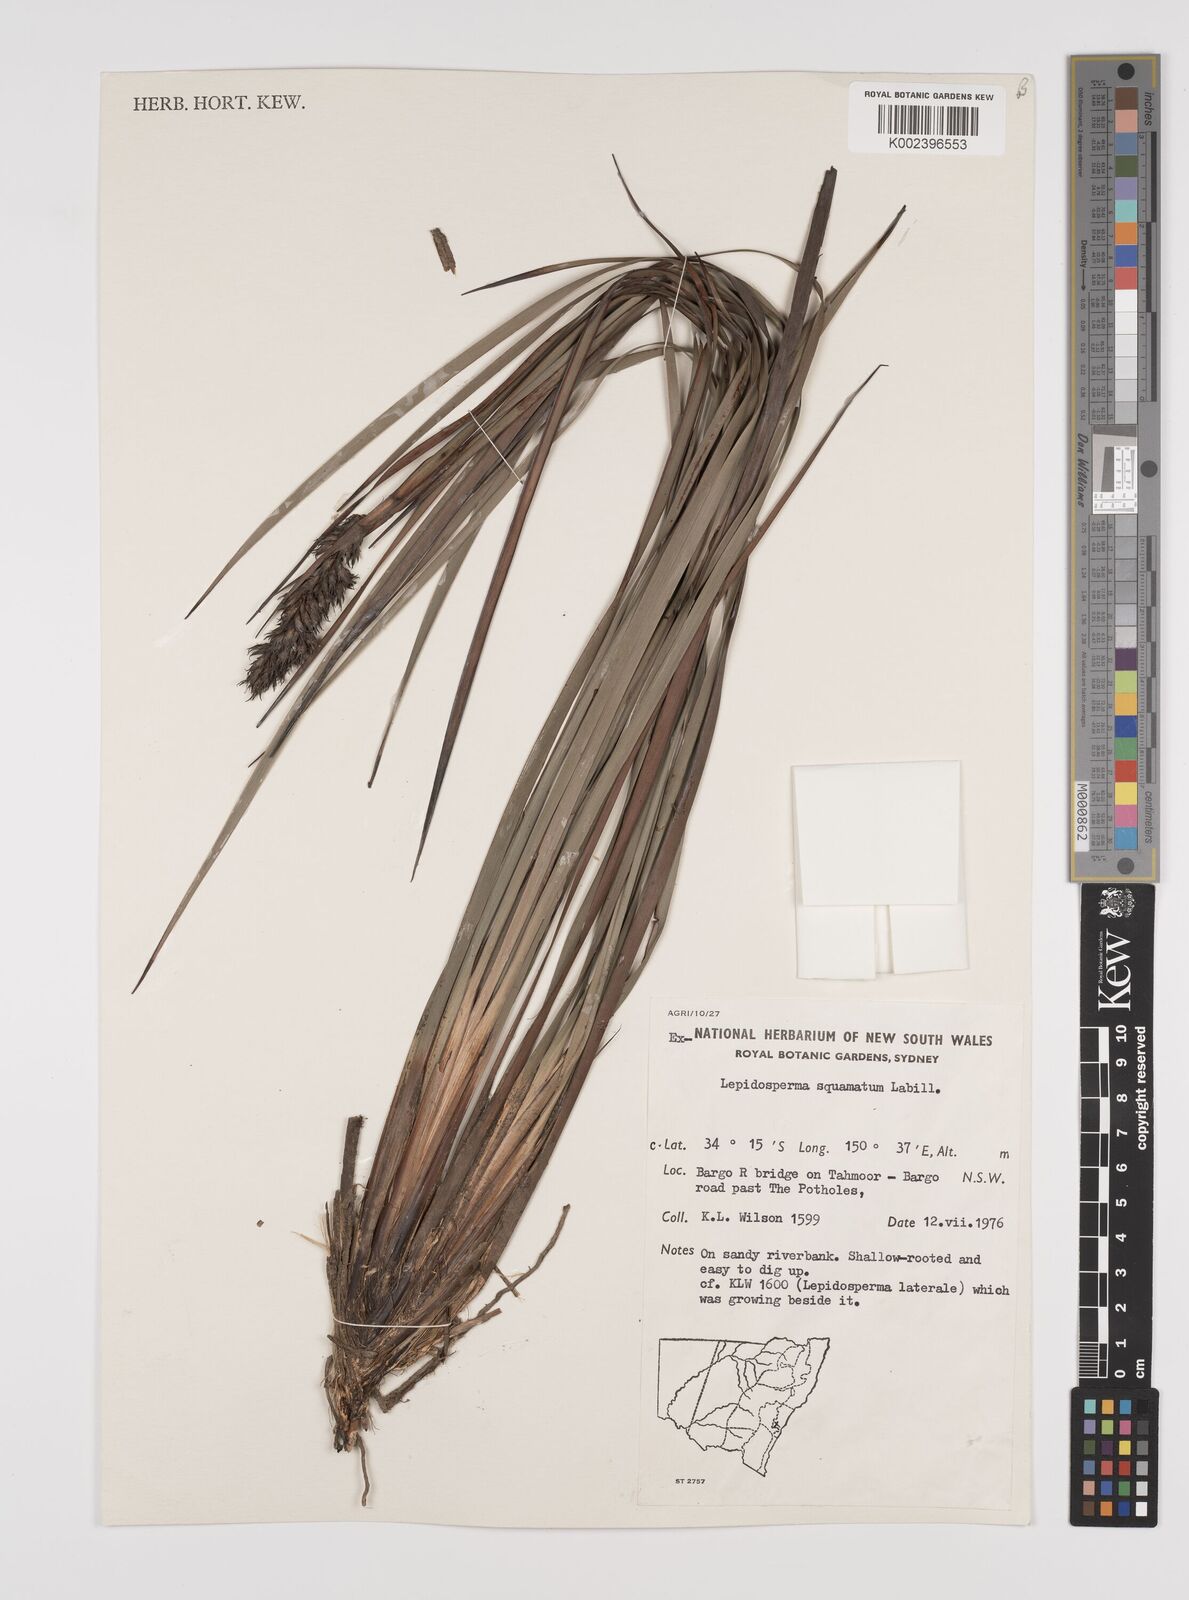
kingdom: Plantae
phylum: Tracheophyta
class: Liliopsida
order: Poales
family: Cyperaceae
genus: Lepidosperma
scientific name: Lepidosperma concavum
